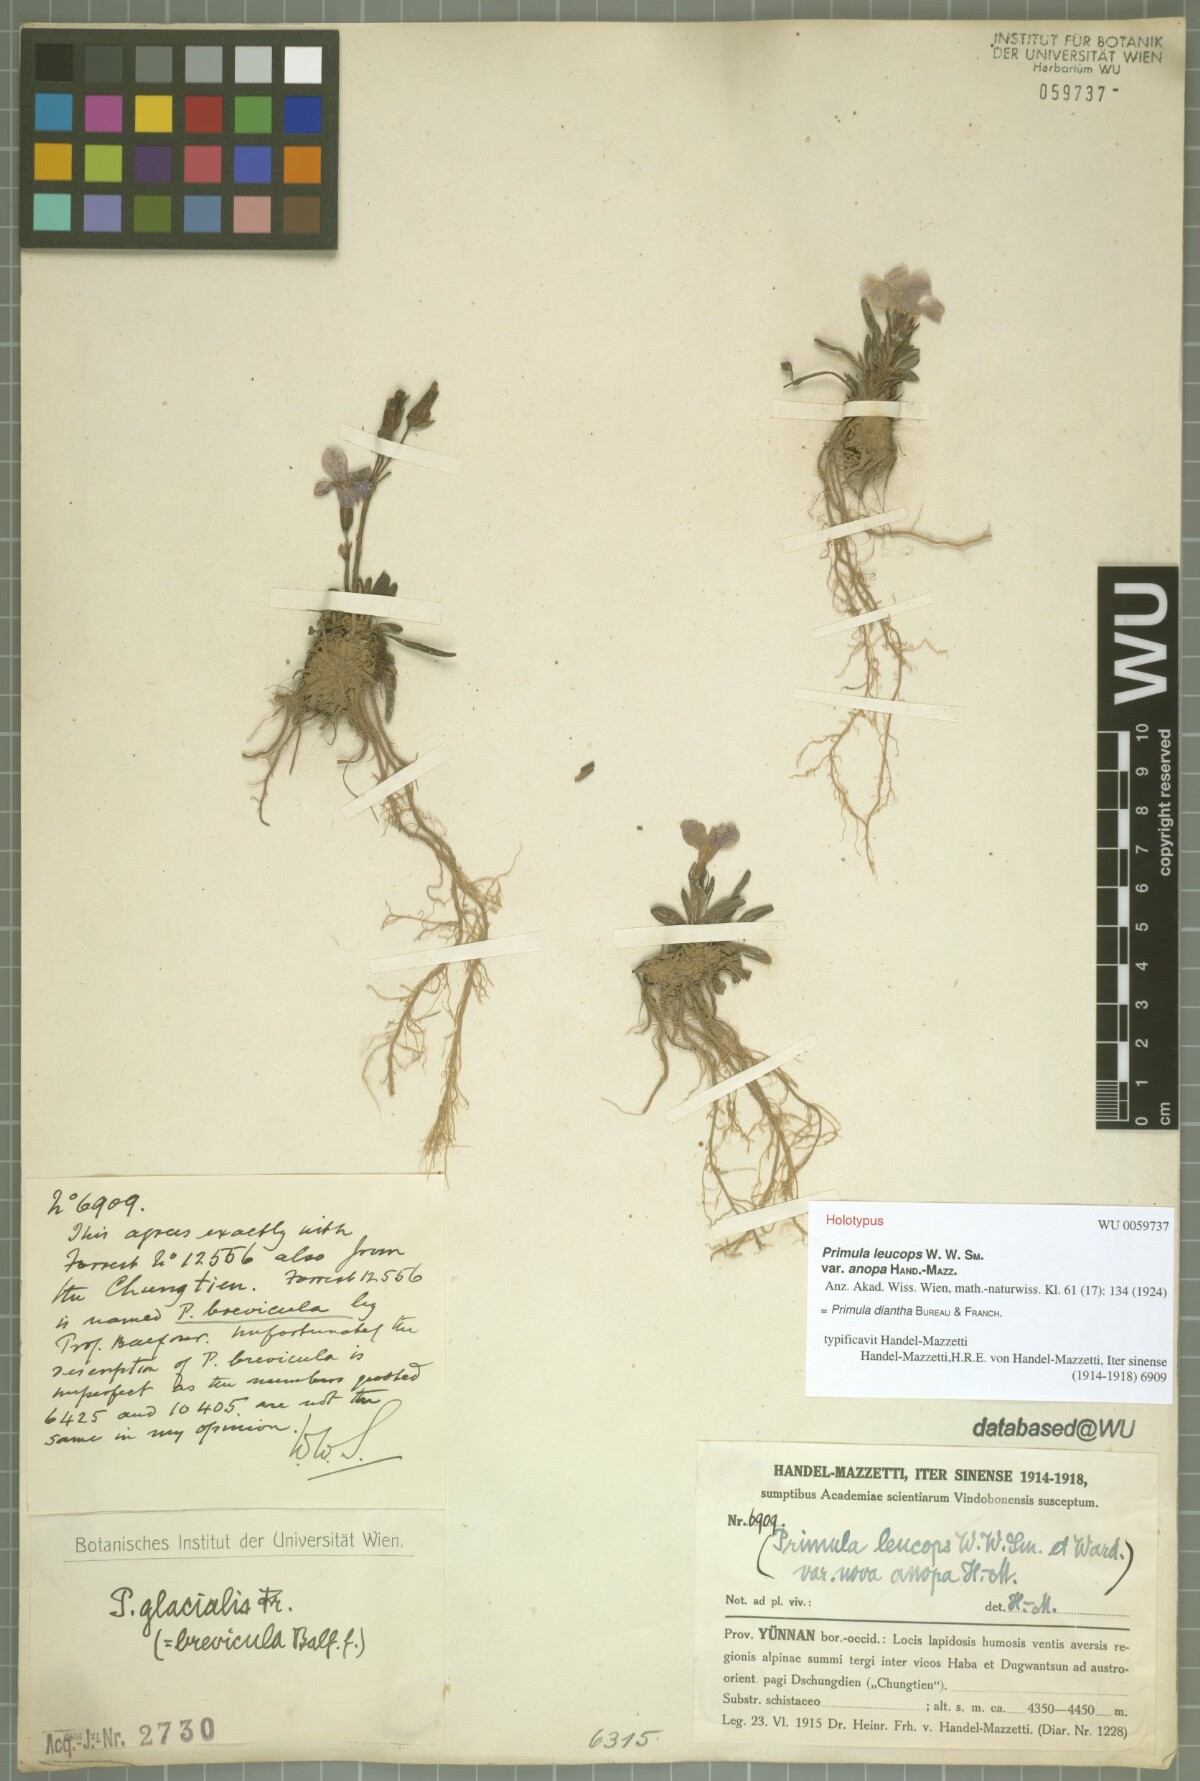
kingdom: Plantae
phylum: Tracheophyta
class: Magnoliopsida
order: Ericales
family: Primulaceae
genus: Primula
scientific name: Primula diantha
